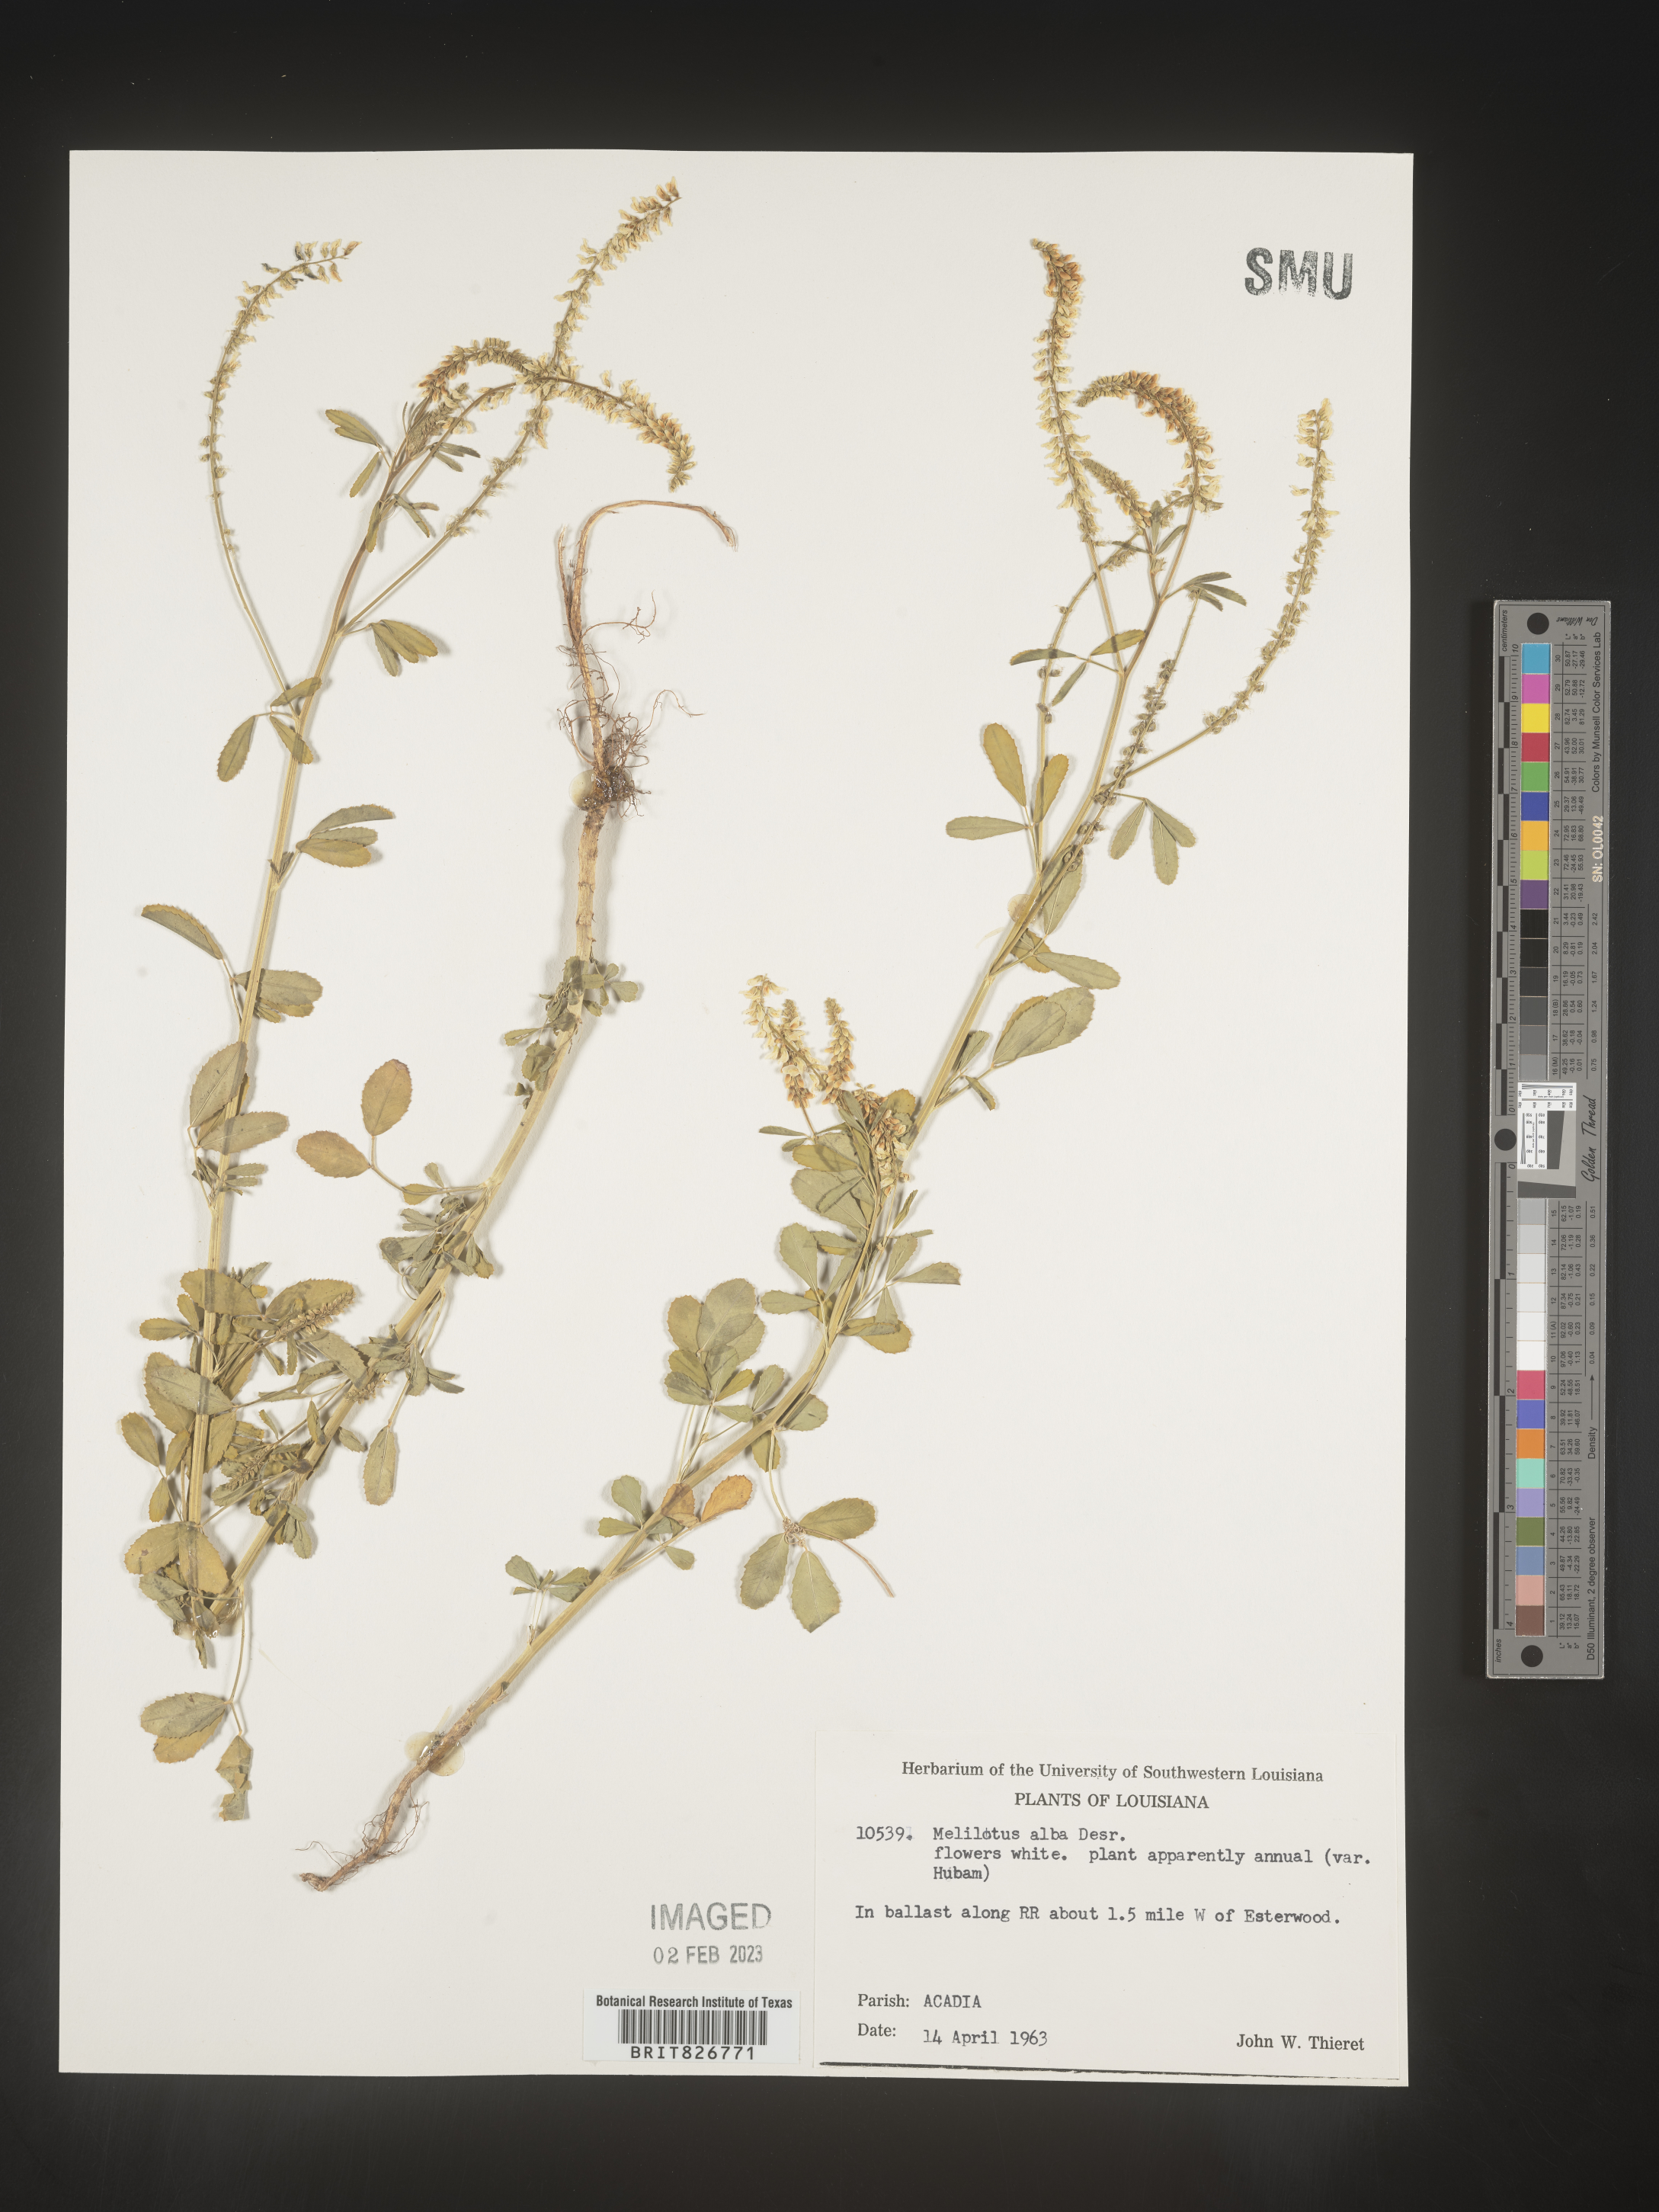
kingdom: Plantae
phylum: Tracheophyta
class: Magnoliopsida
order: Fabales
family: Fabaceae
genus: Melilotus
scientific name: Melilotus albus
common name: White melilot
